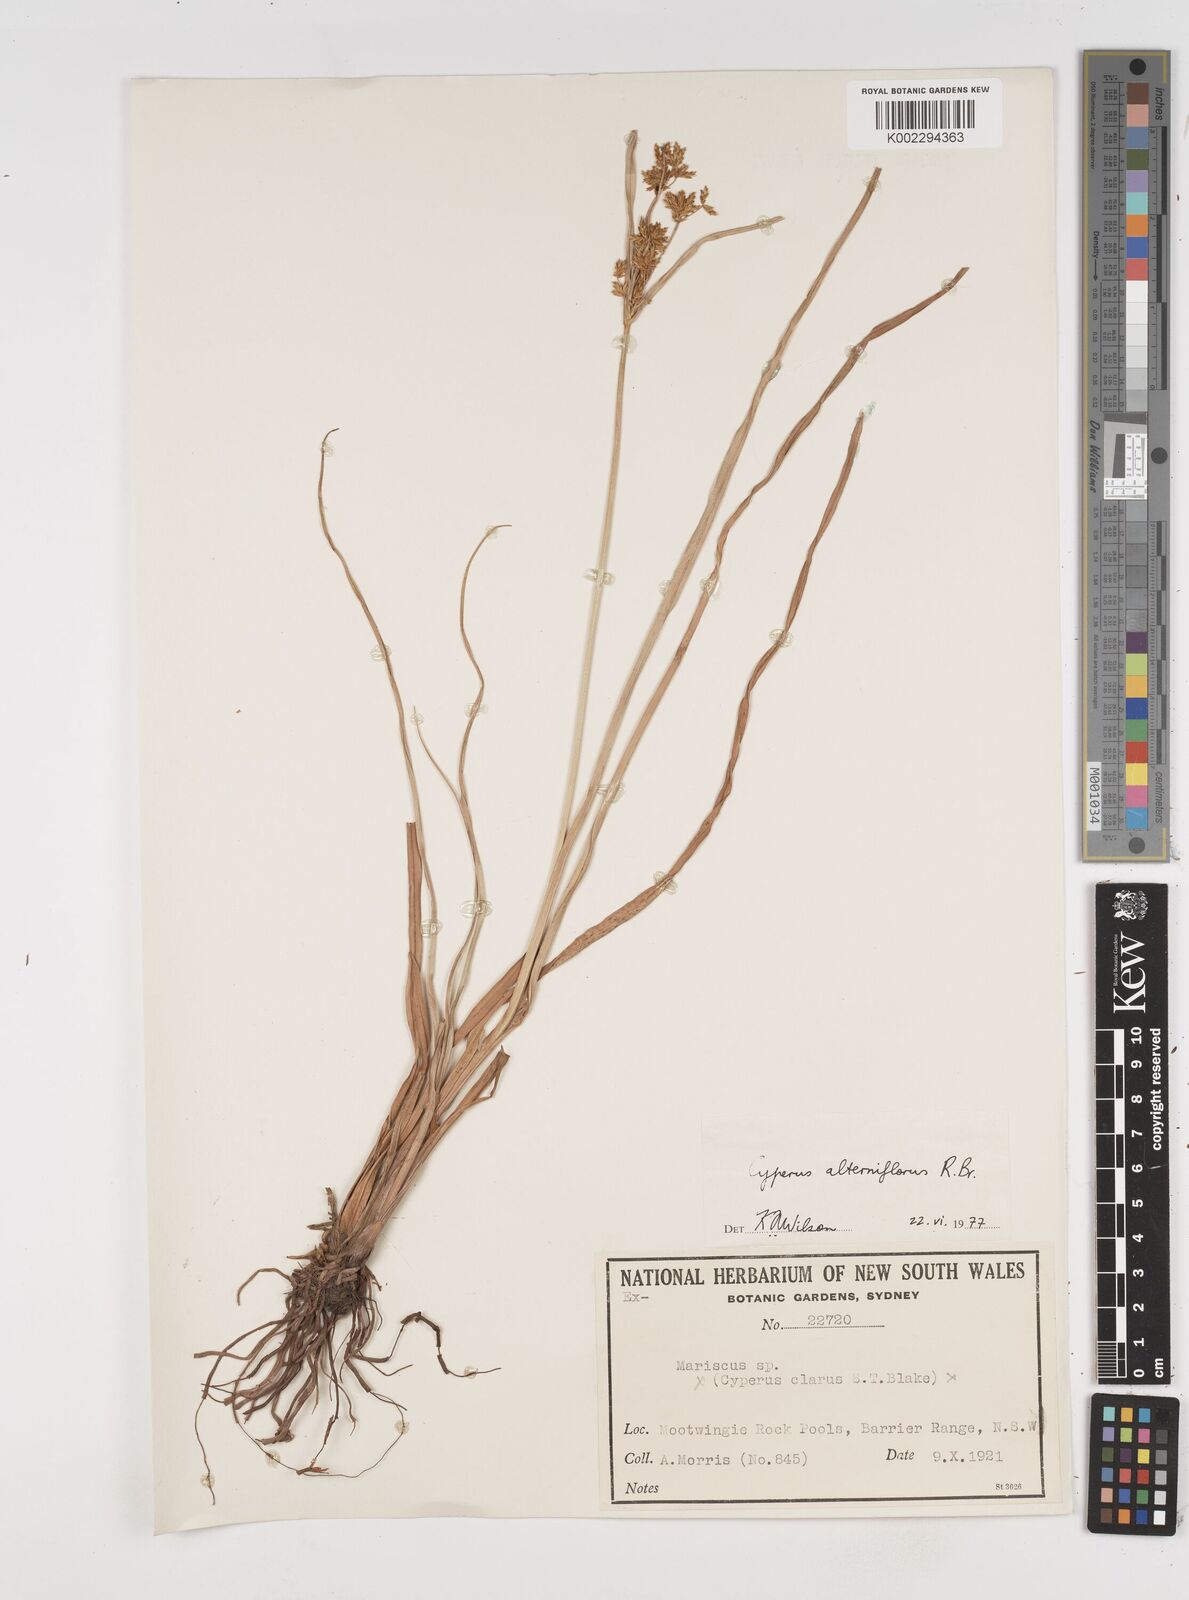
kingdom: Plantae
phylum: Tracheophyta
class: Liliopsida
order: Poales
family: Cyperaceae
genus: Cyperus
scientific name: Cyperus alterniflorus
